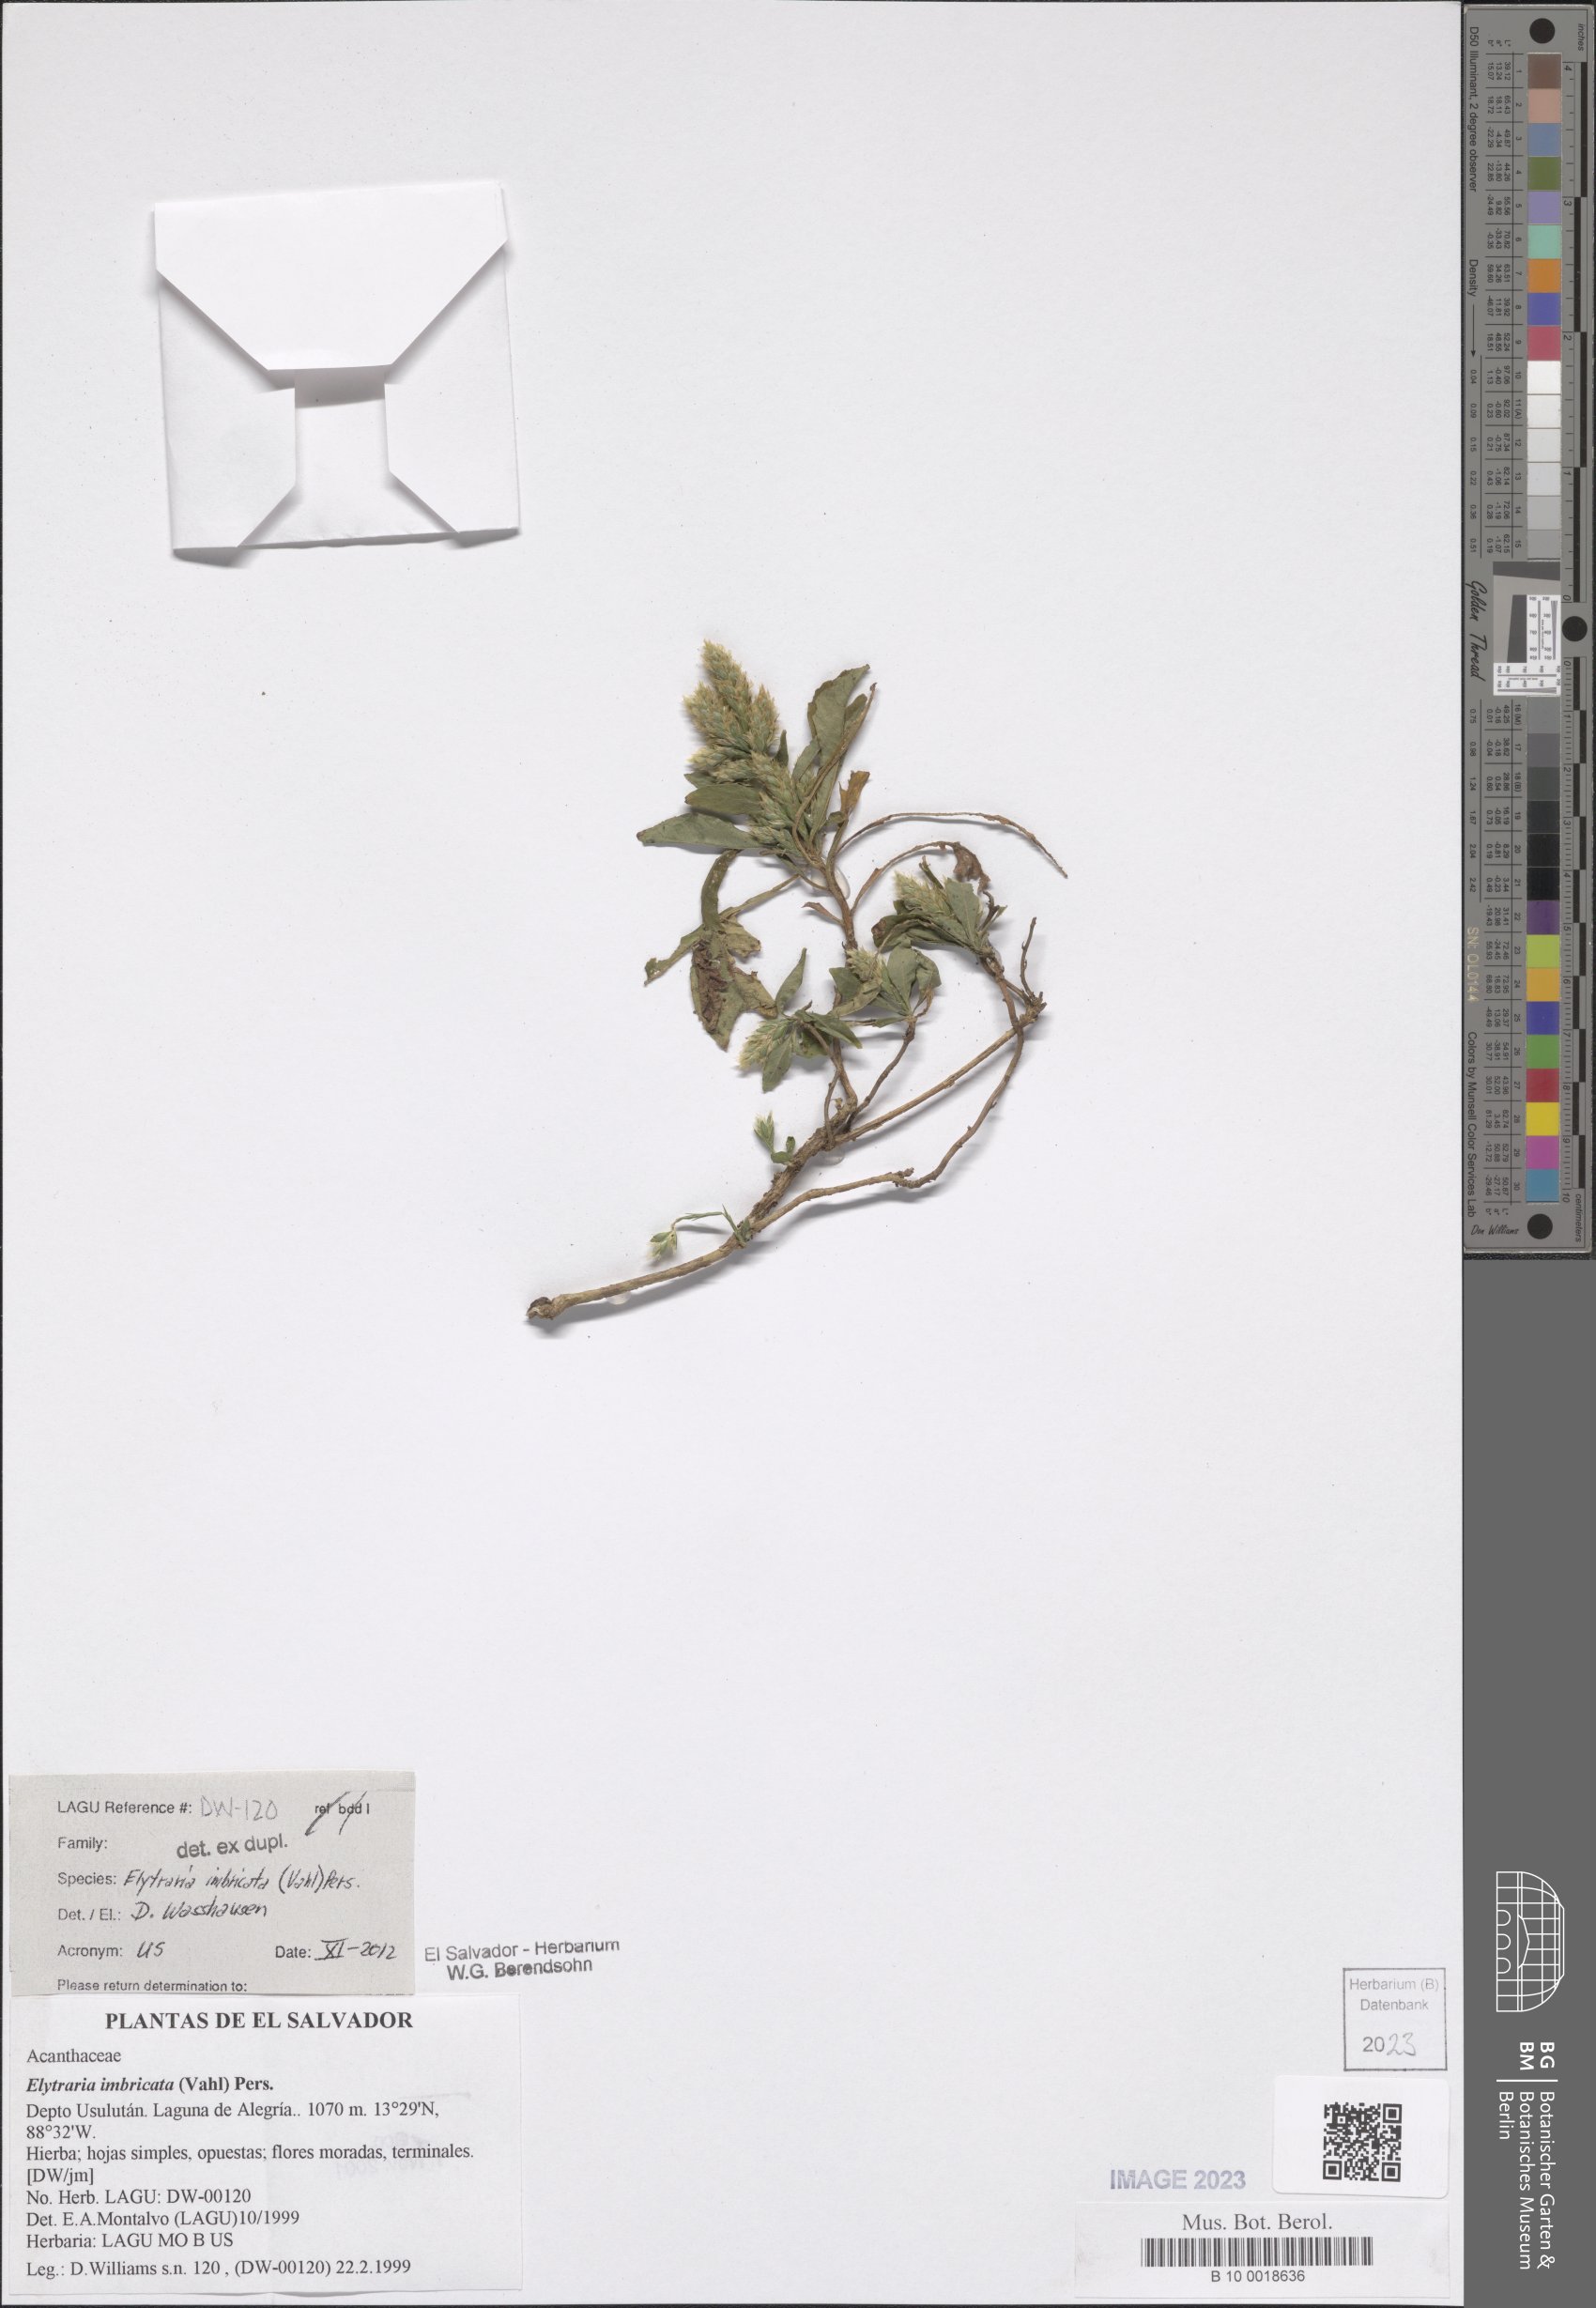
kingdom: Plantae
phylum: Tracheophyta
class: Magnoliopsida
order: Lamiales
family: Acanthaceae
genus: Elytraria
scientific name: Elytraria imbricata
